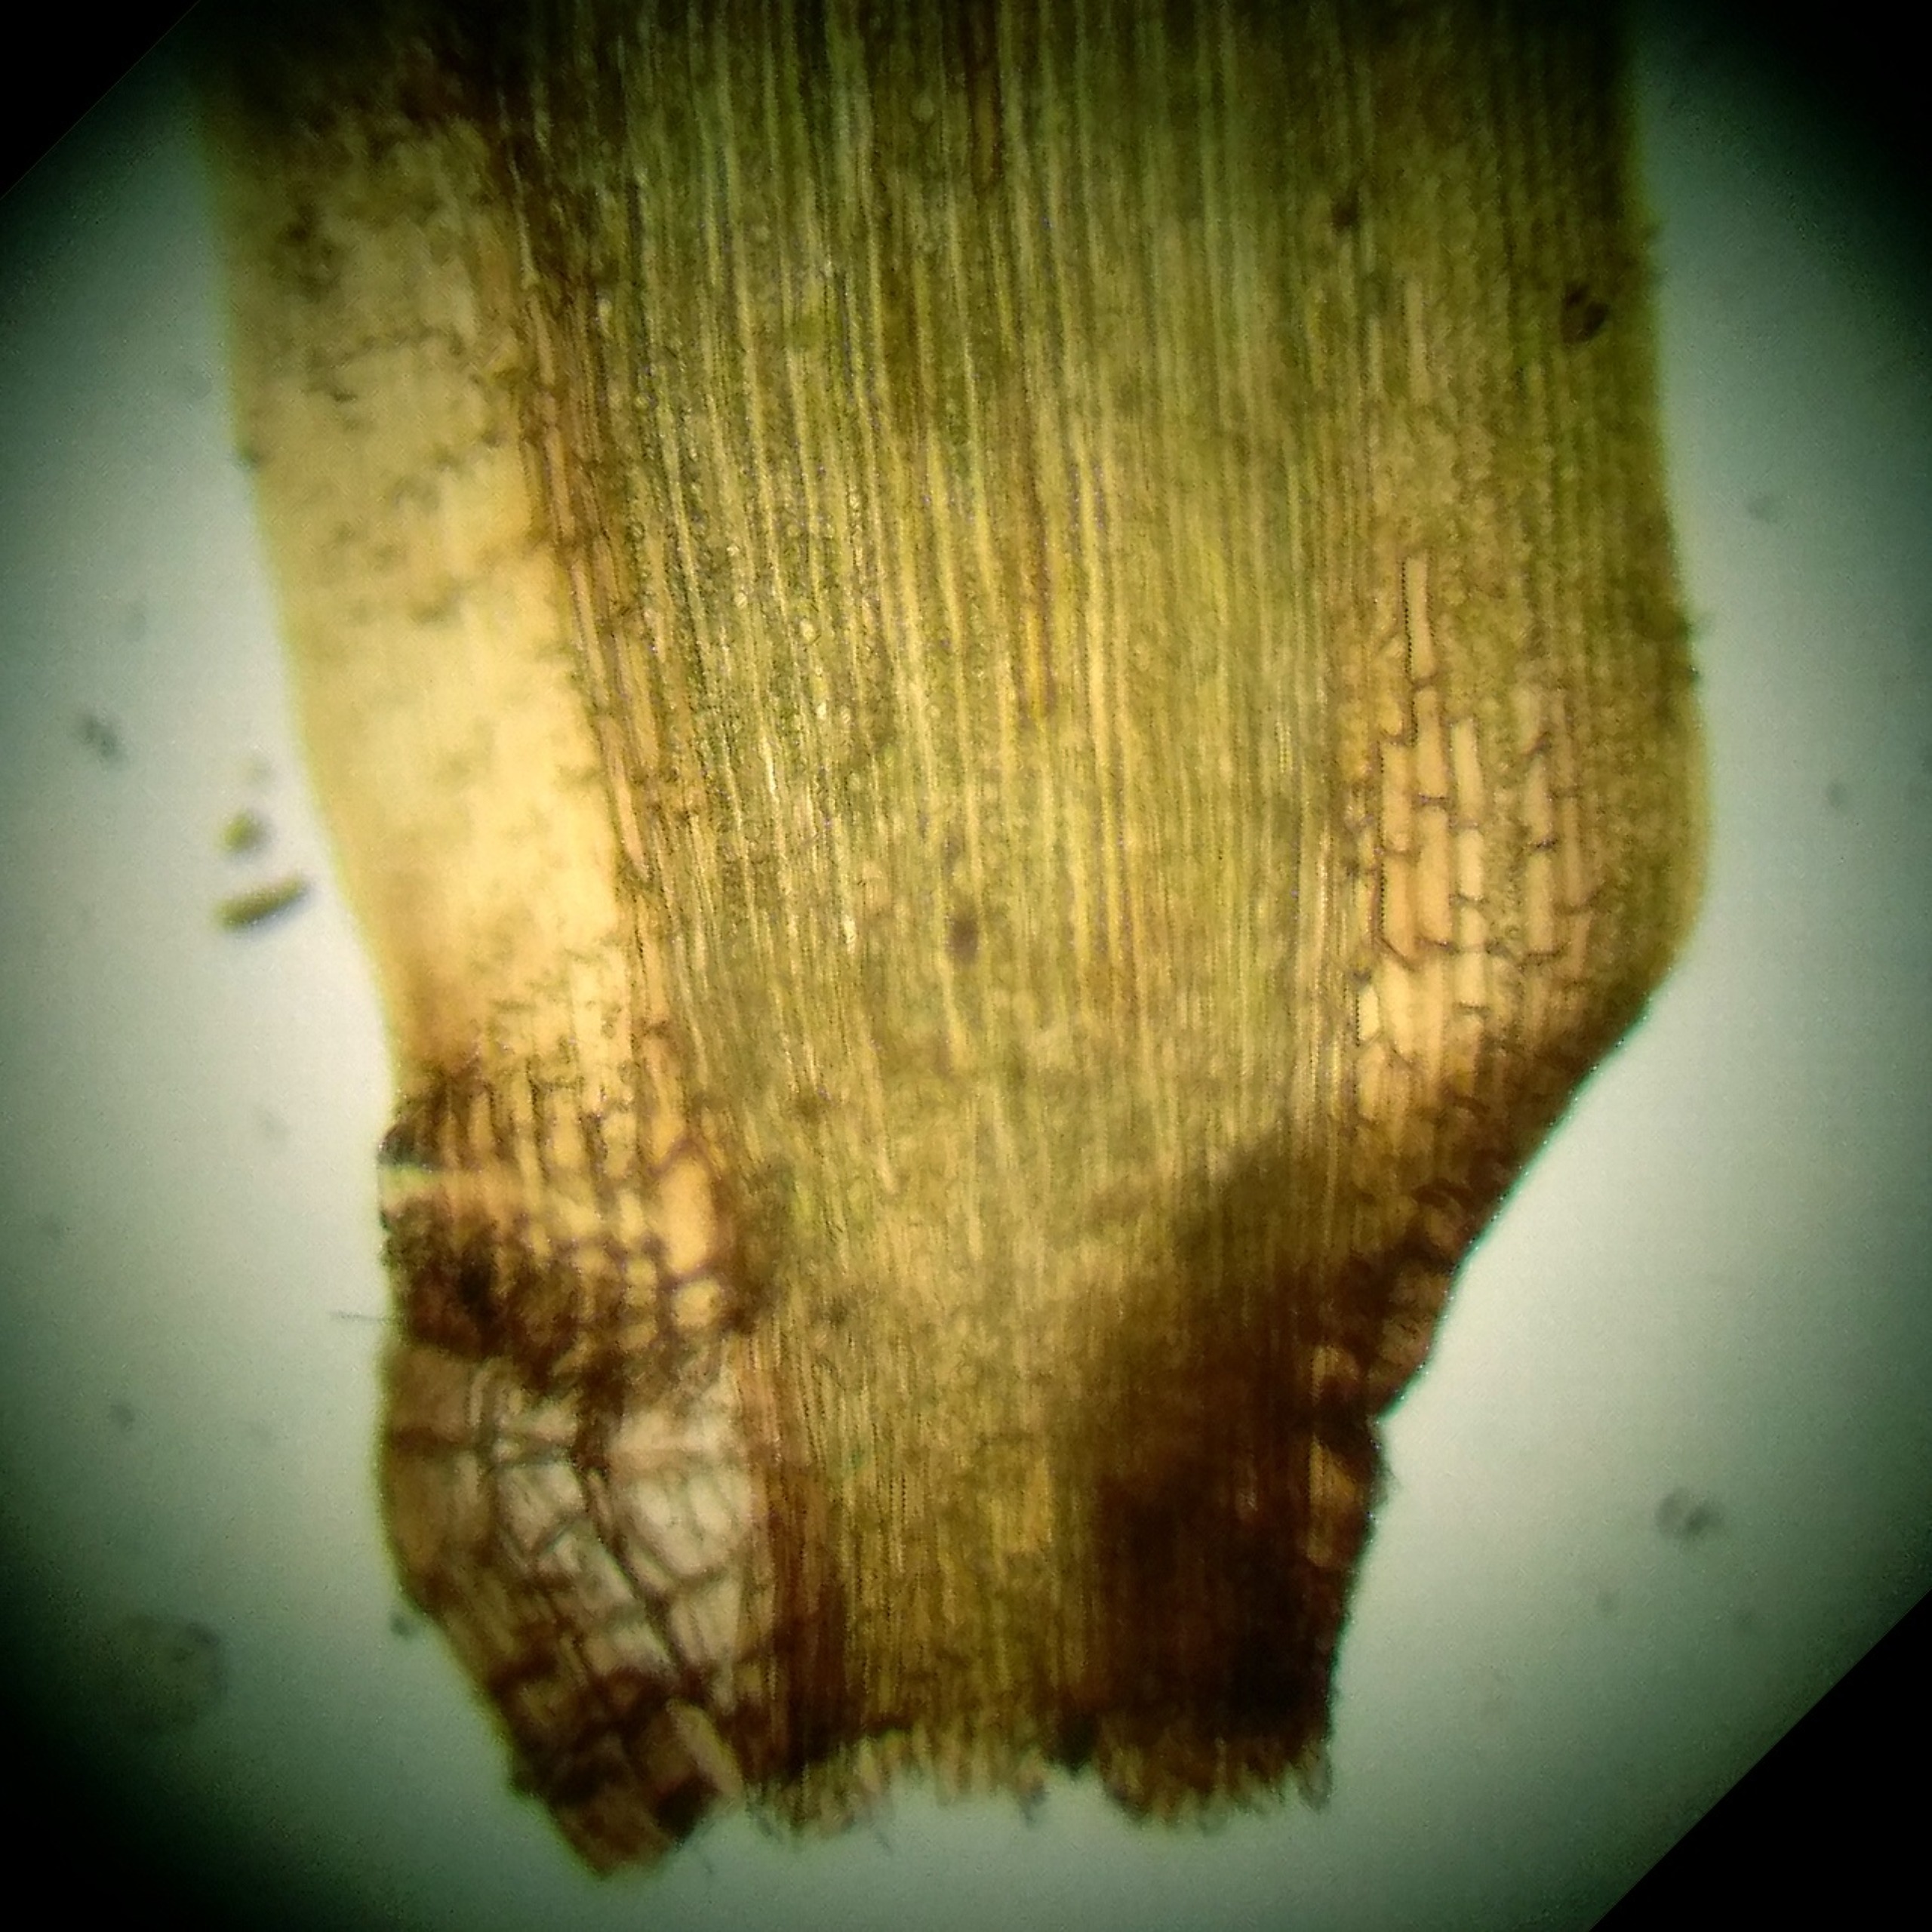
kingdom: Plantae
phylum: Bryophyta
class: Bryopsida
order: Dicranales
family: Dicranaceae
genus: Paraleucobryum
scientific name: Paraleucobryum longifolium
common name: Skov-ribbemos
